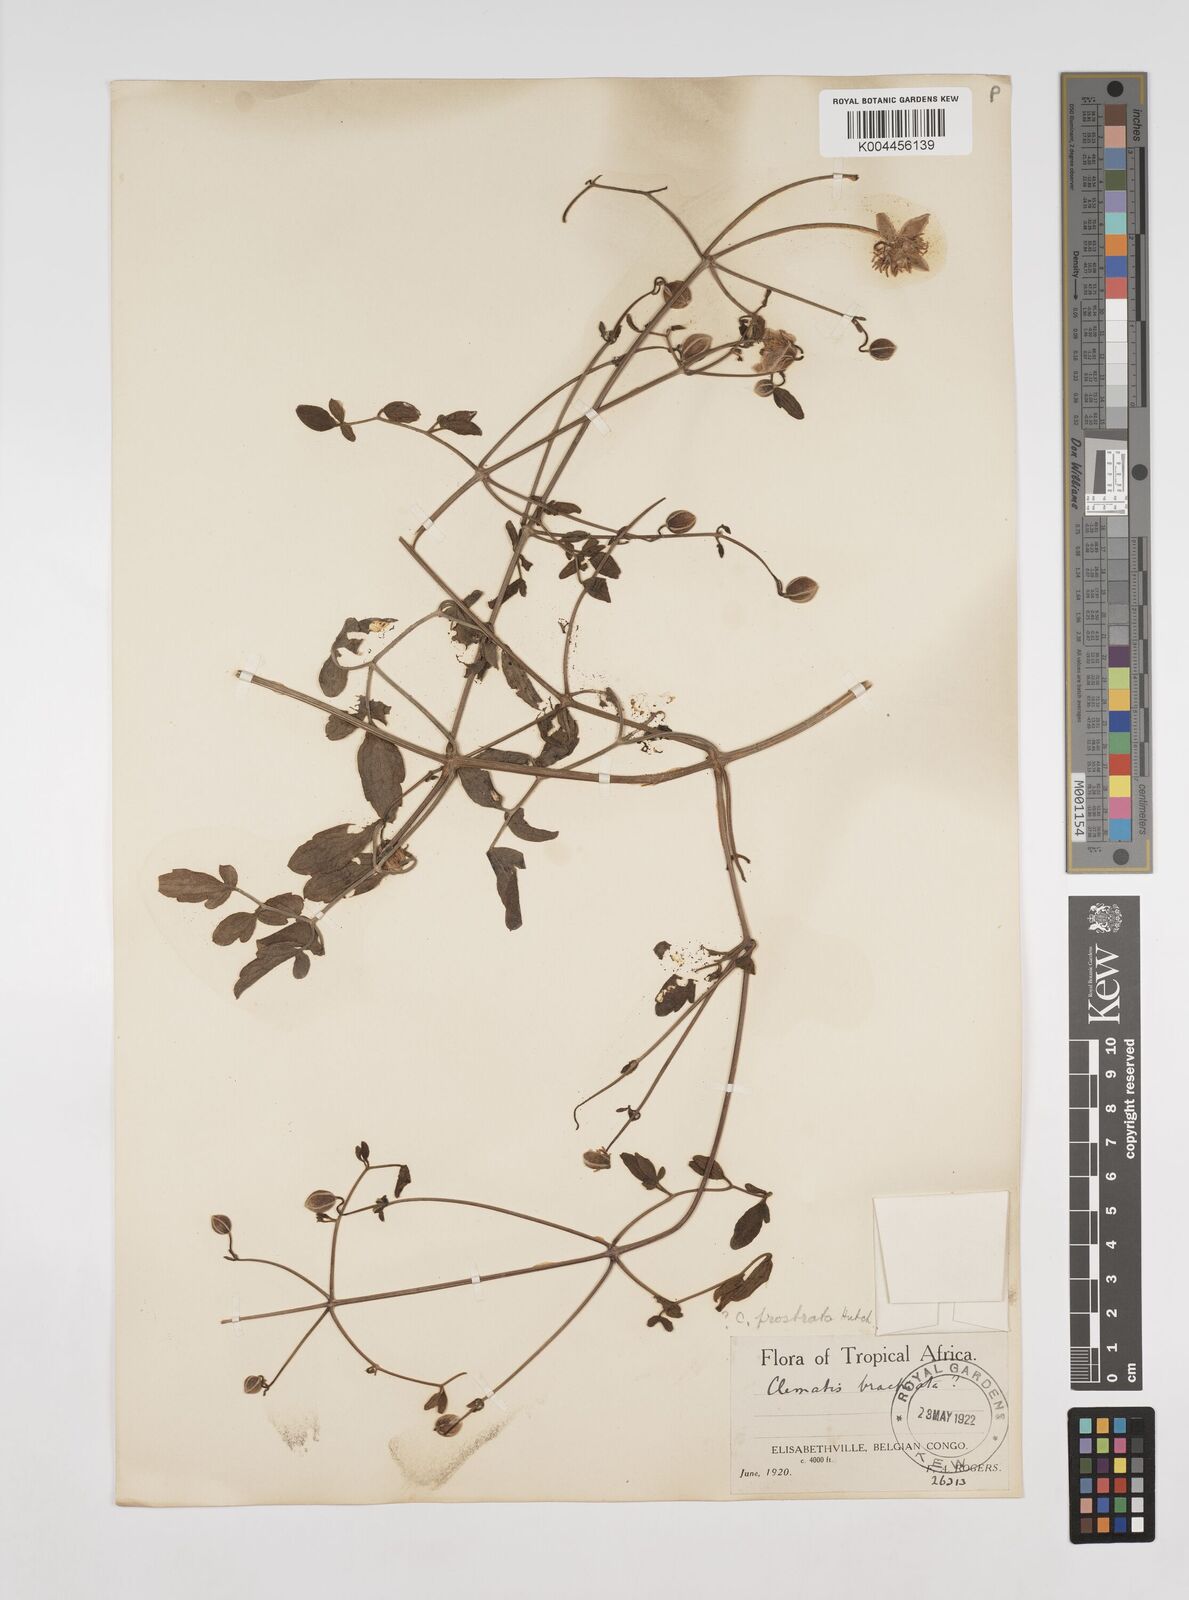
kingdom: Plantae
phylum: Tracheophyta
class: Magnoliopsida
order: Ranunculales
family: Ranunculaceae
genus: Clematis
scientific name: Clematis welwitschii
